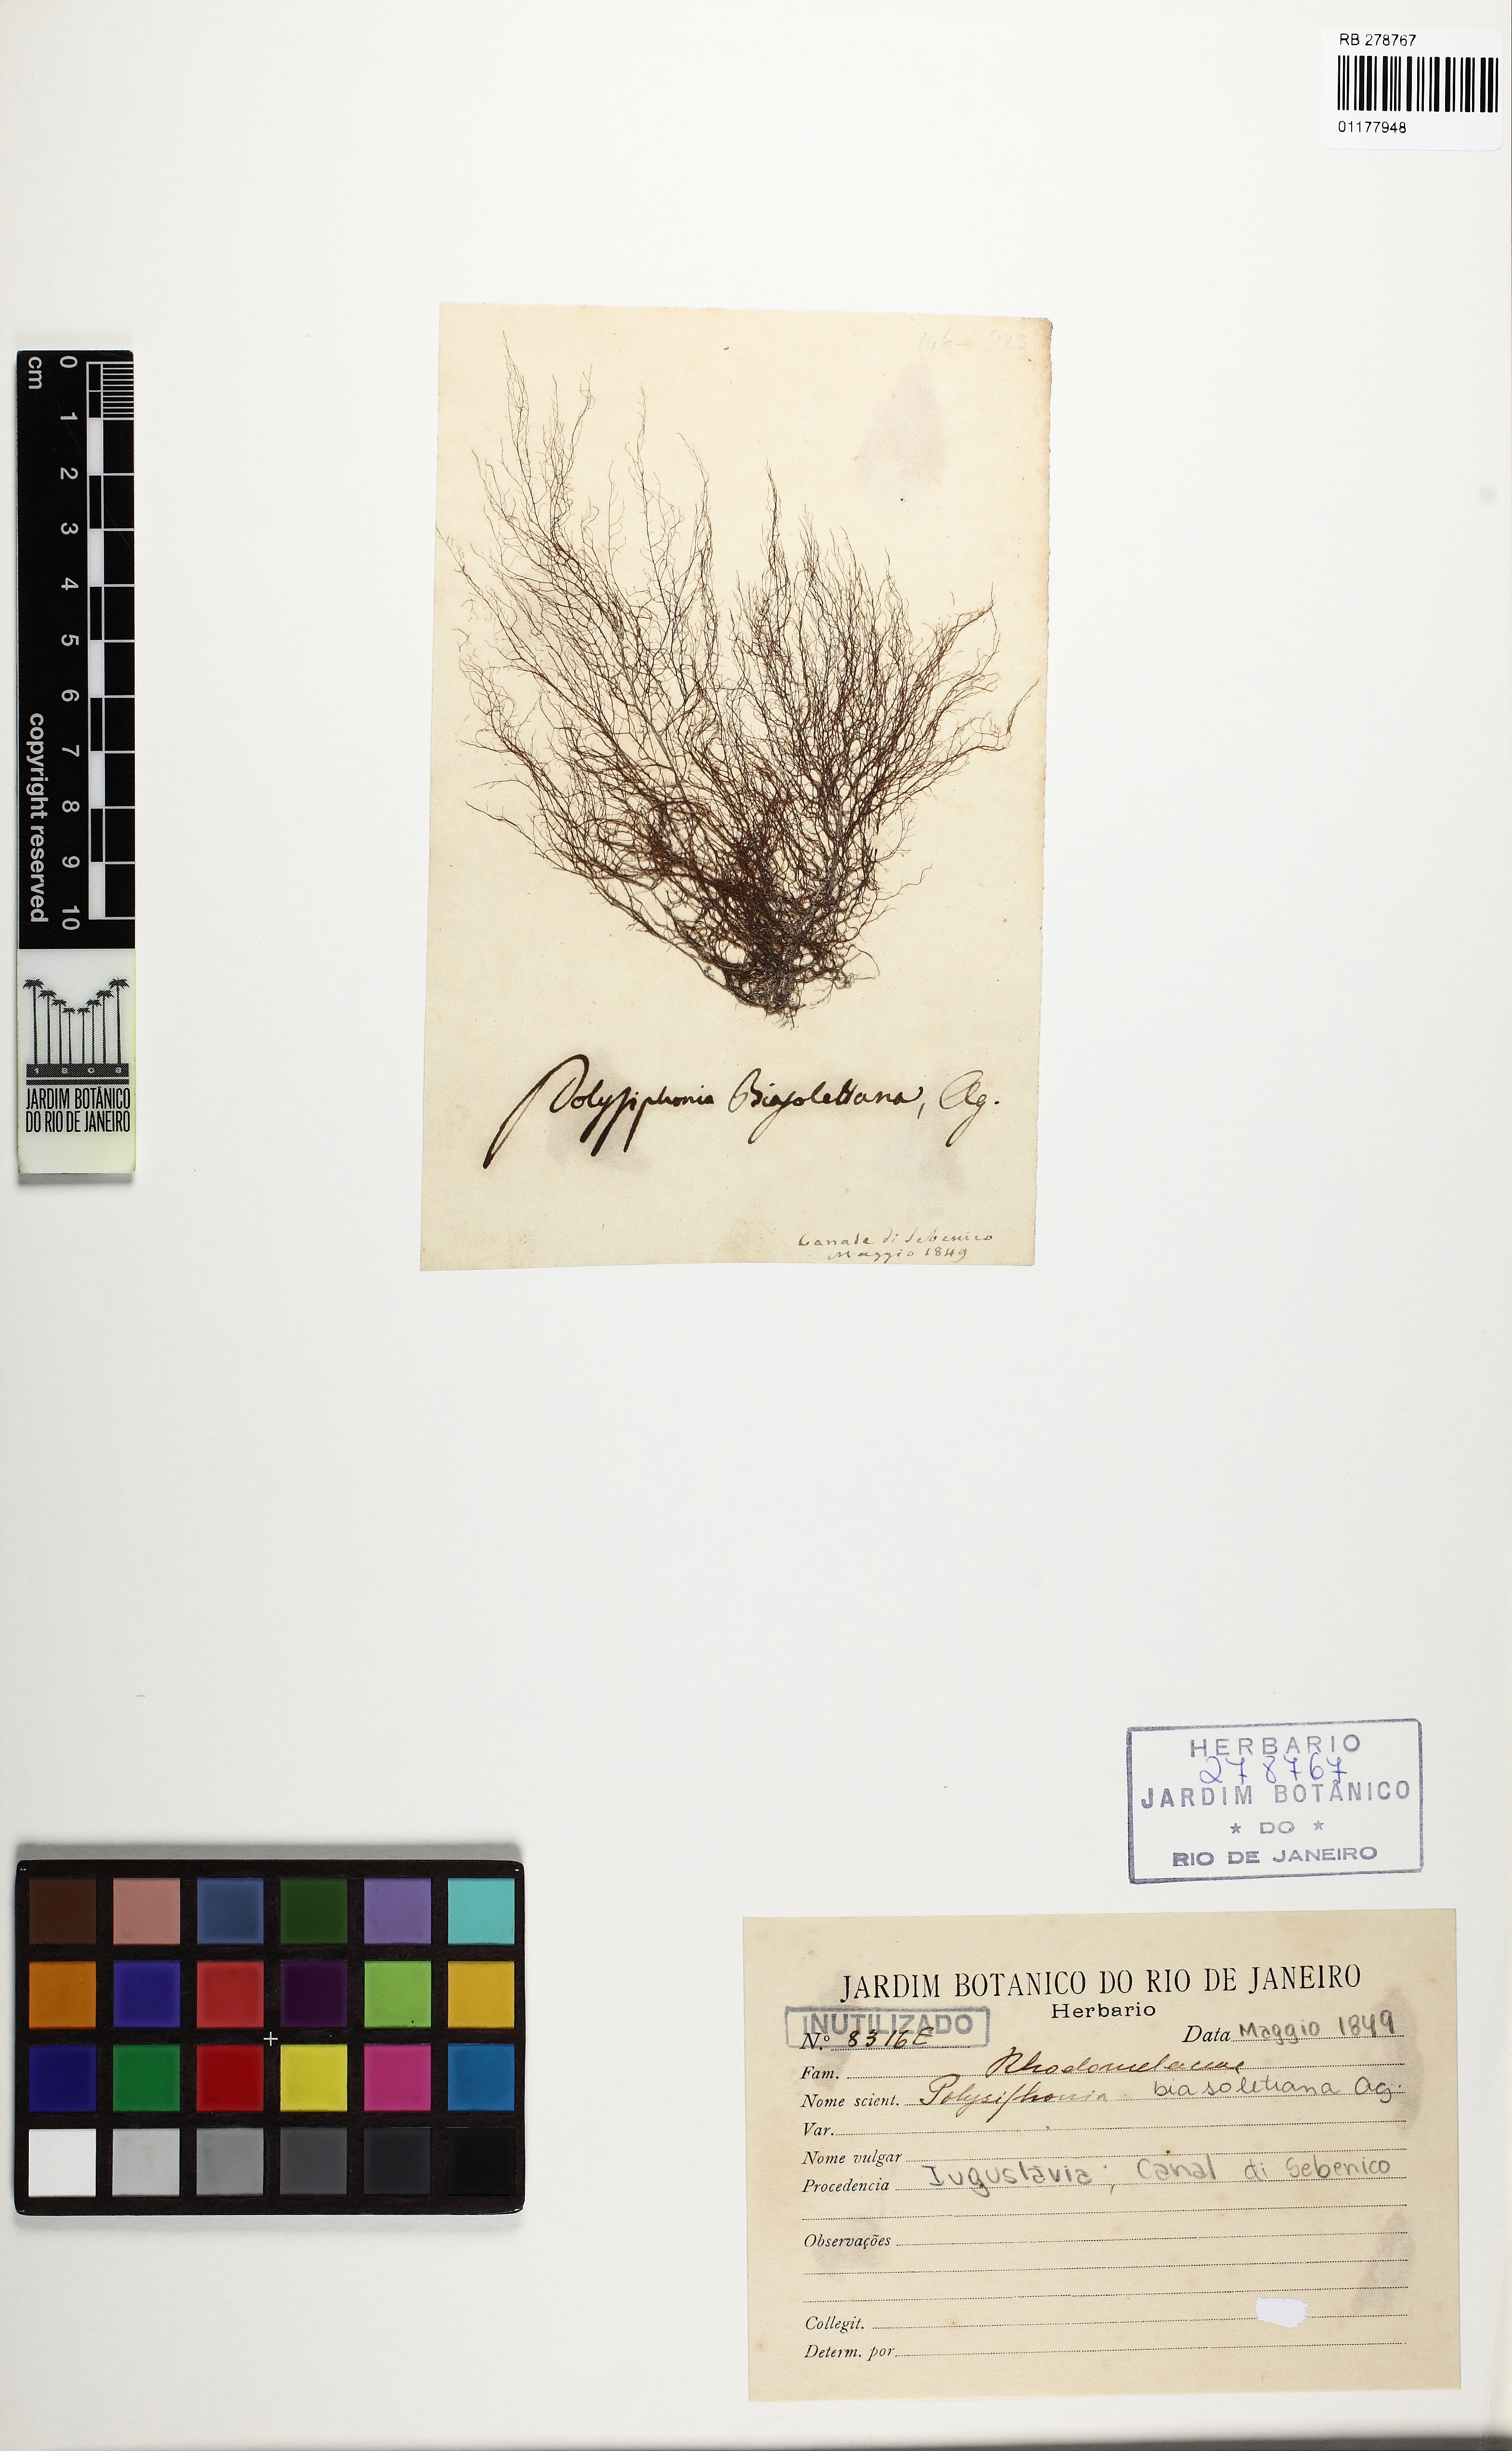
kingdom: Plantae
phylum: Rhodophyta
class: Florideophyceae
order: Ceramiales
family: Rhodomelaceae
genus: Polysiphonia
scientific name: Polysiphonia
